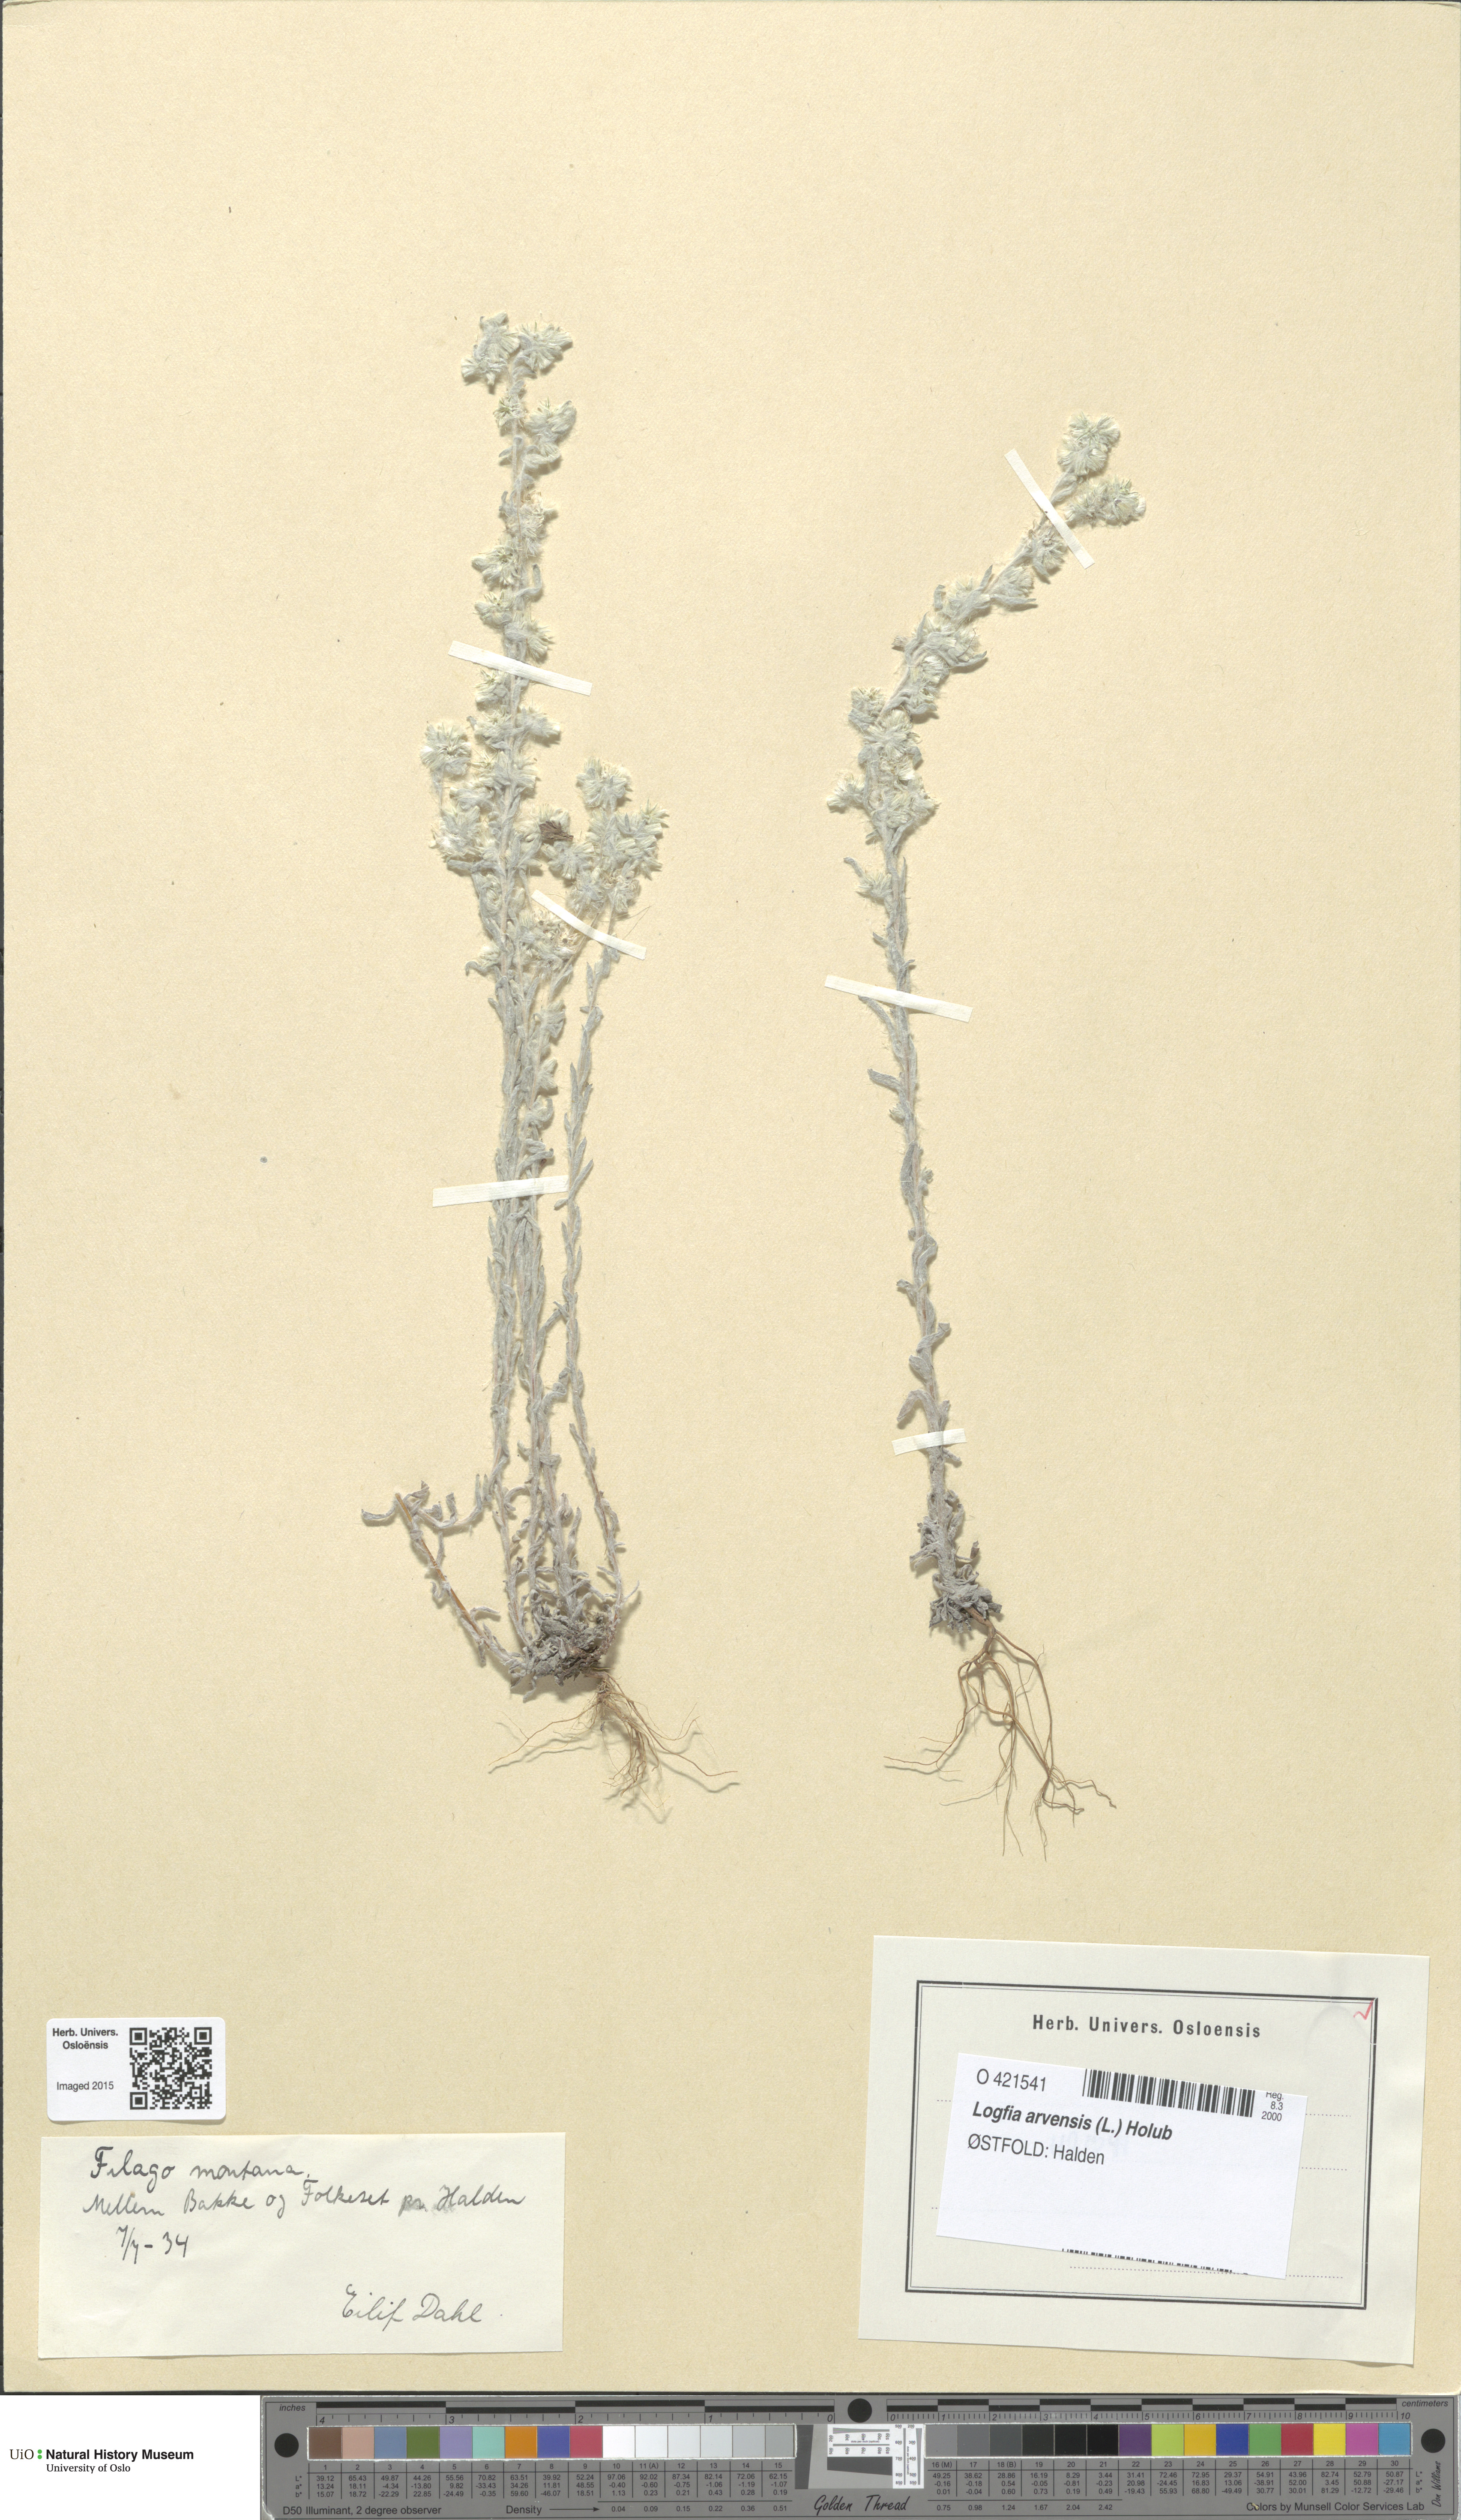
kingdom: Plantae
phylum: Tracheophyta
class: Magnoliopsida
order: Asterales
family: Asteraceae
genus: Filago
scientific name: Filago arvensis
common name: Field cudweed
